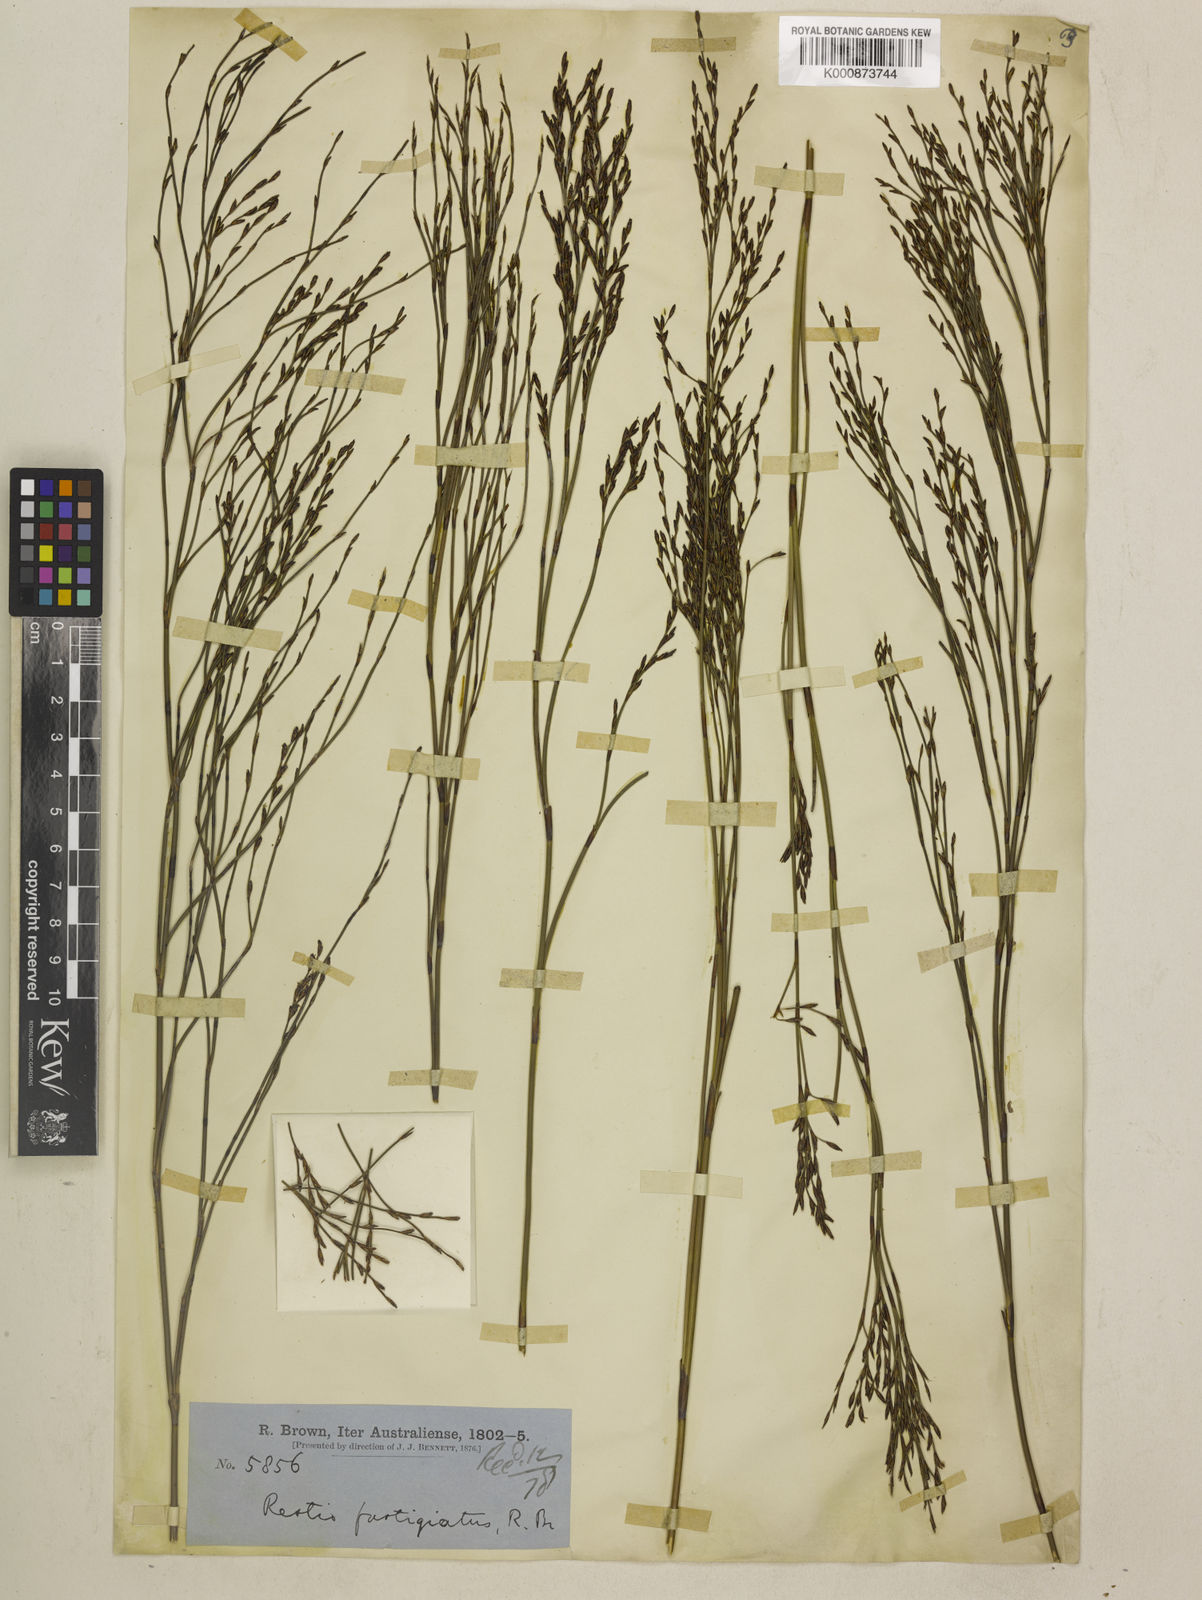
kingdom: Plantae
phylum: Tracheophyta
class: Liliopsida
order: Poales
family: Restionaceae
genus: Chordifex
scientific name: Chordifex fastigiatus
